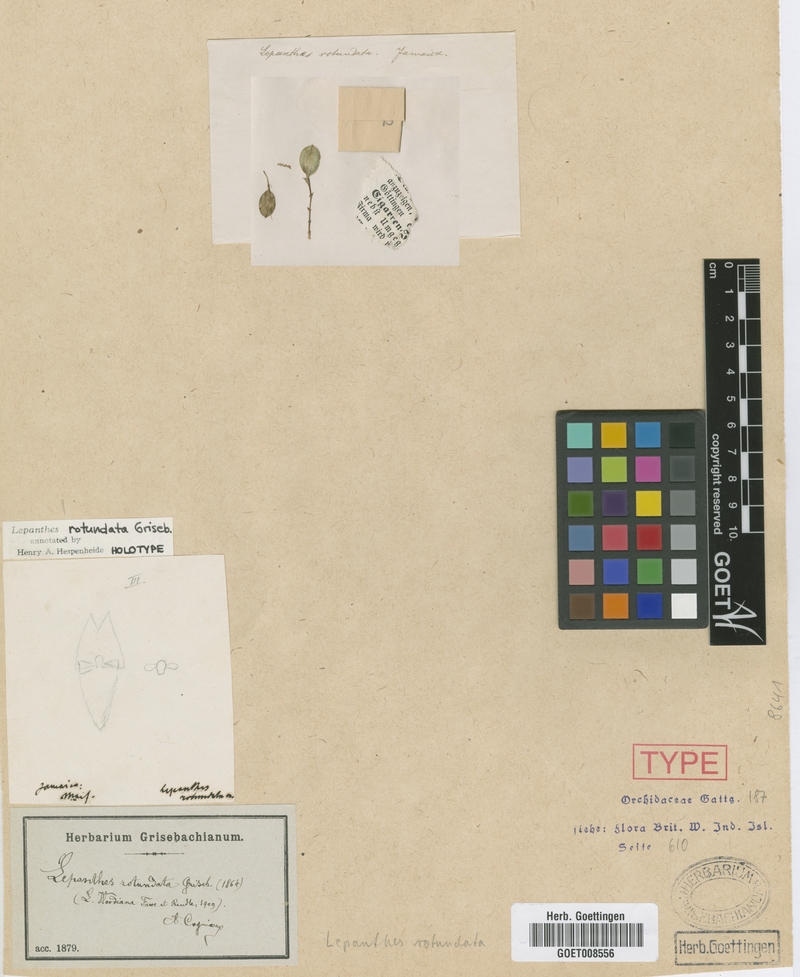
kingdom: Plantae
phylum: Tracheophyta
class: Liliopsida
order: Asparagales
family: Orchidaceae
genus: Lepanthes
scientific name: Lepanthes rotundata
